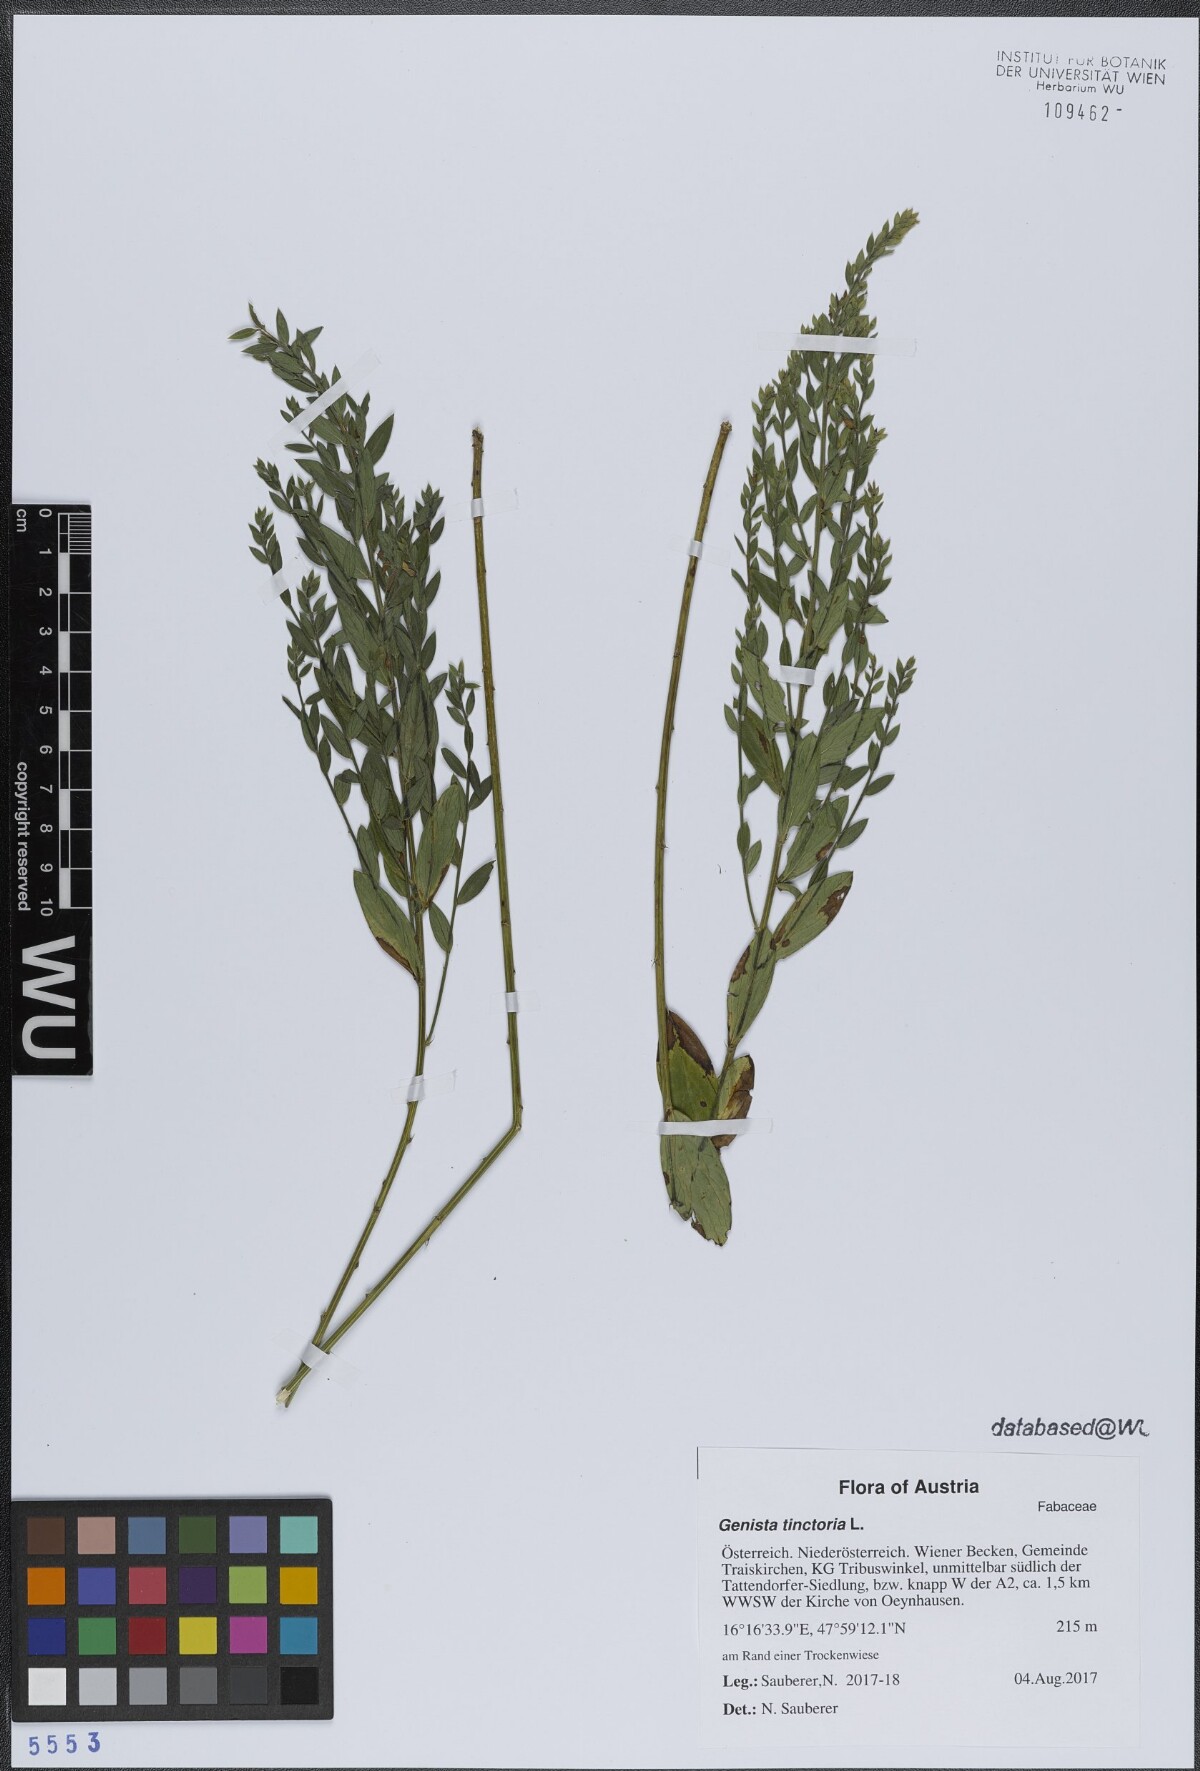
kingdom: Plantae
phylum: Tracheophyta
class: Magnoliopsida
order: Fabales
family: Fabaceae
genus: Genista
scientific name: Genista tinctoria
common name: Dyer's greenweed
